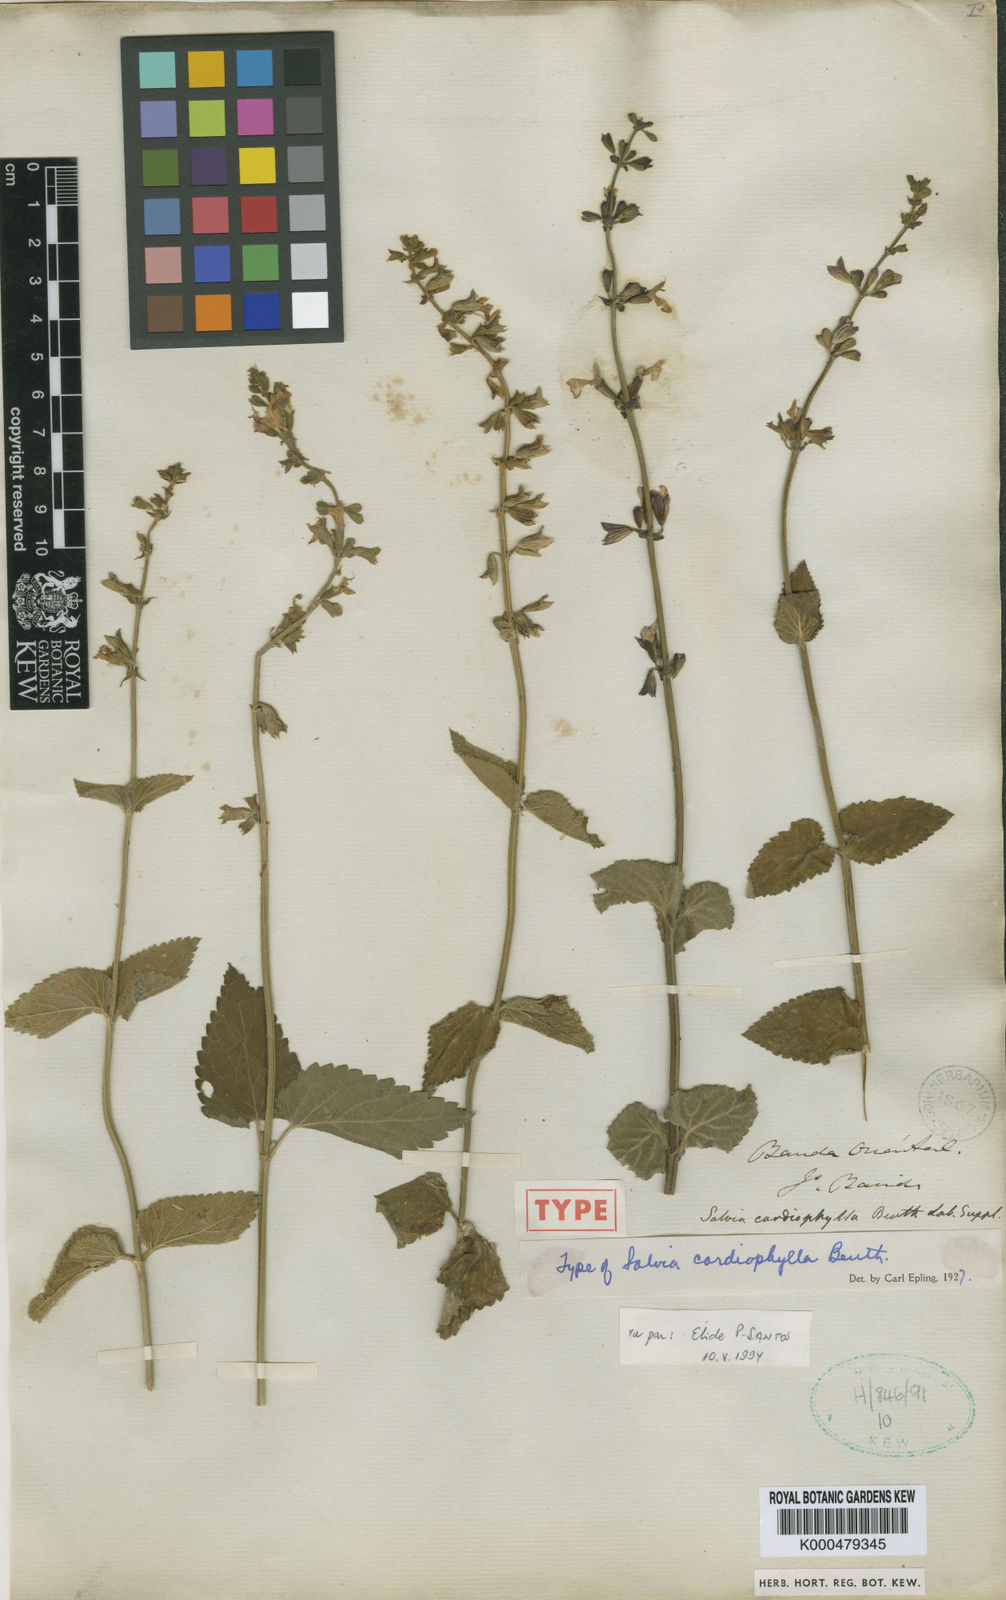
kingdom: Plantae
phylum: Tracheophyta
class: Magnoliopsida
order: Lamiales
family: Lamiaceae
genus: Salvia
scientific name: Salvia cardiophylla
